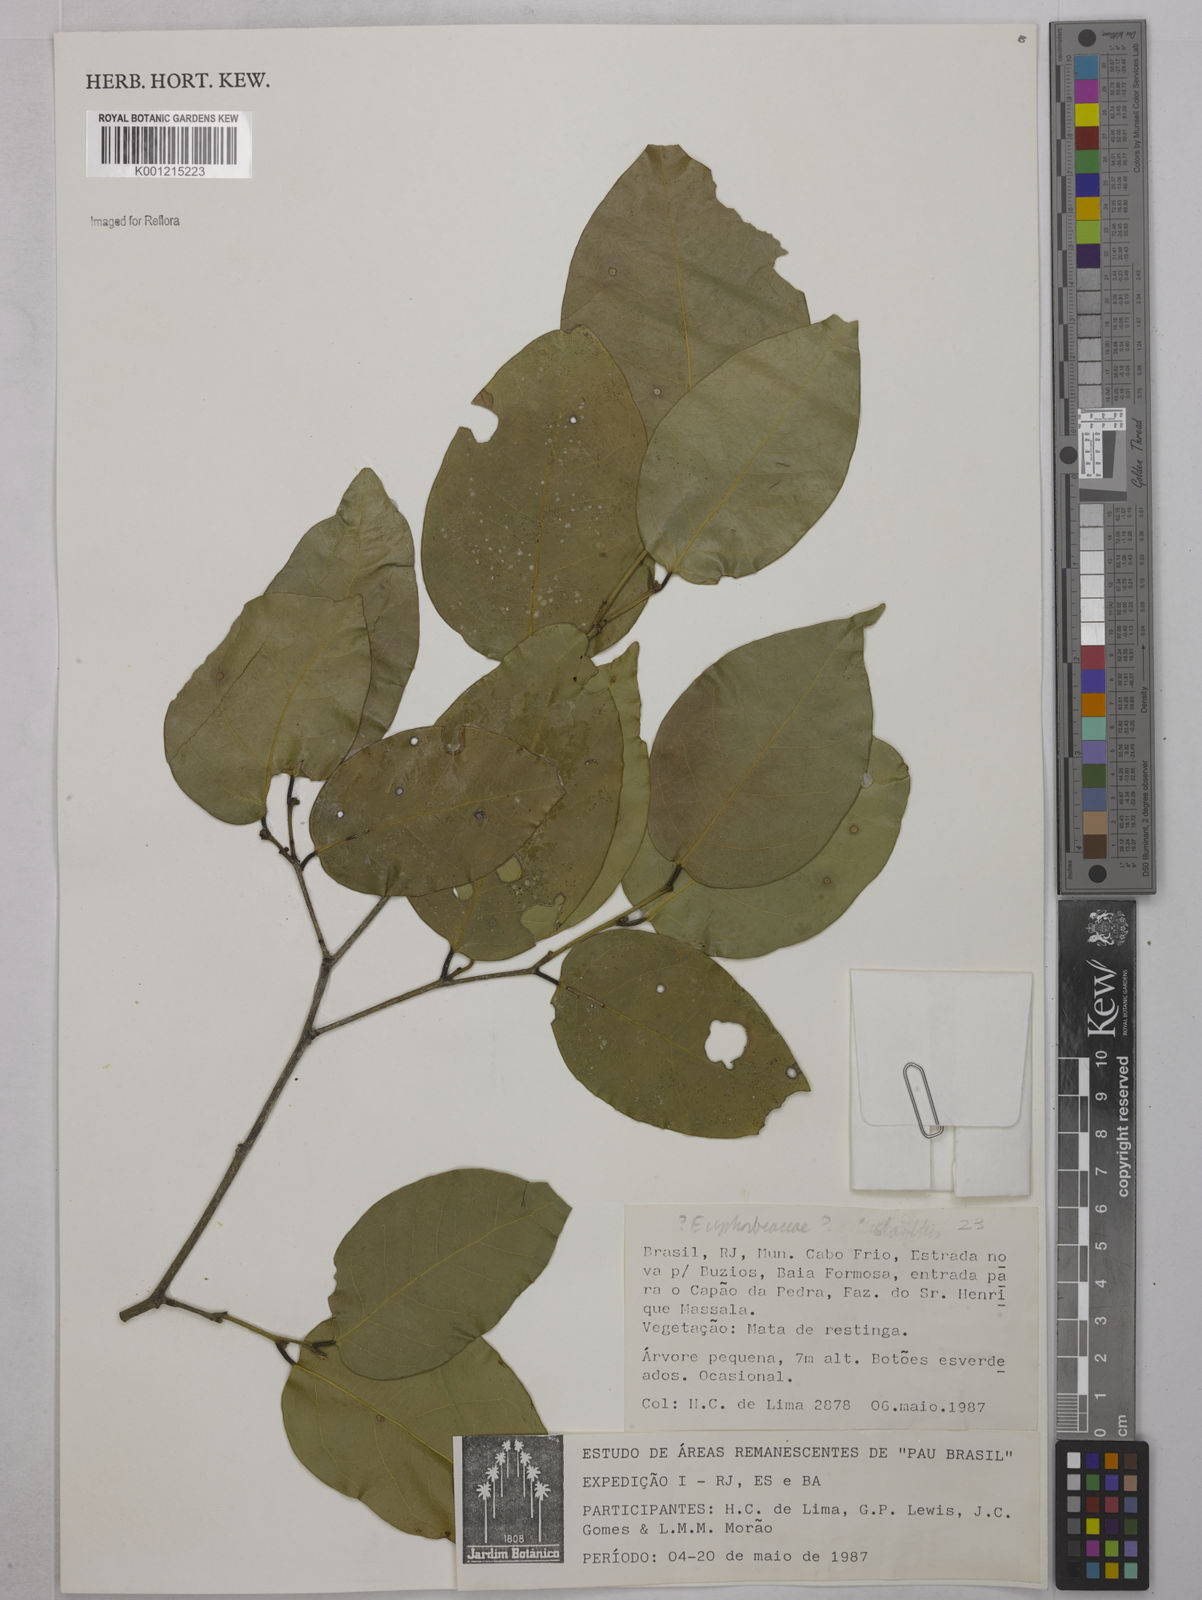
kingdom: Plantae
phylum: Tracheophyta
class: Magnoliopsida
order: Malpighiales
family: Euphorbiaceae
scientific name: Euphorbiaceae
